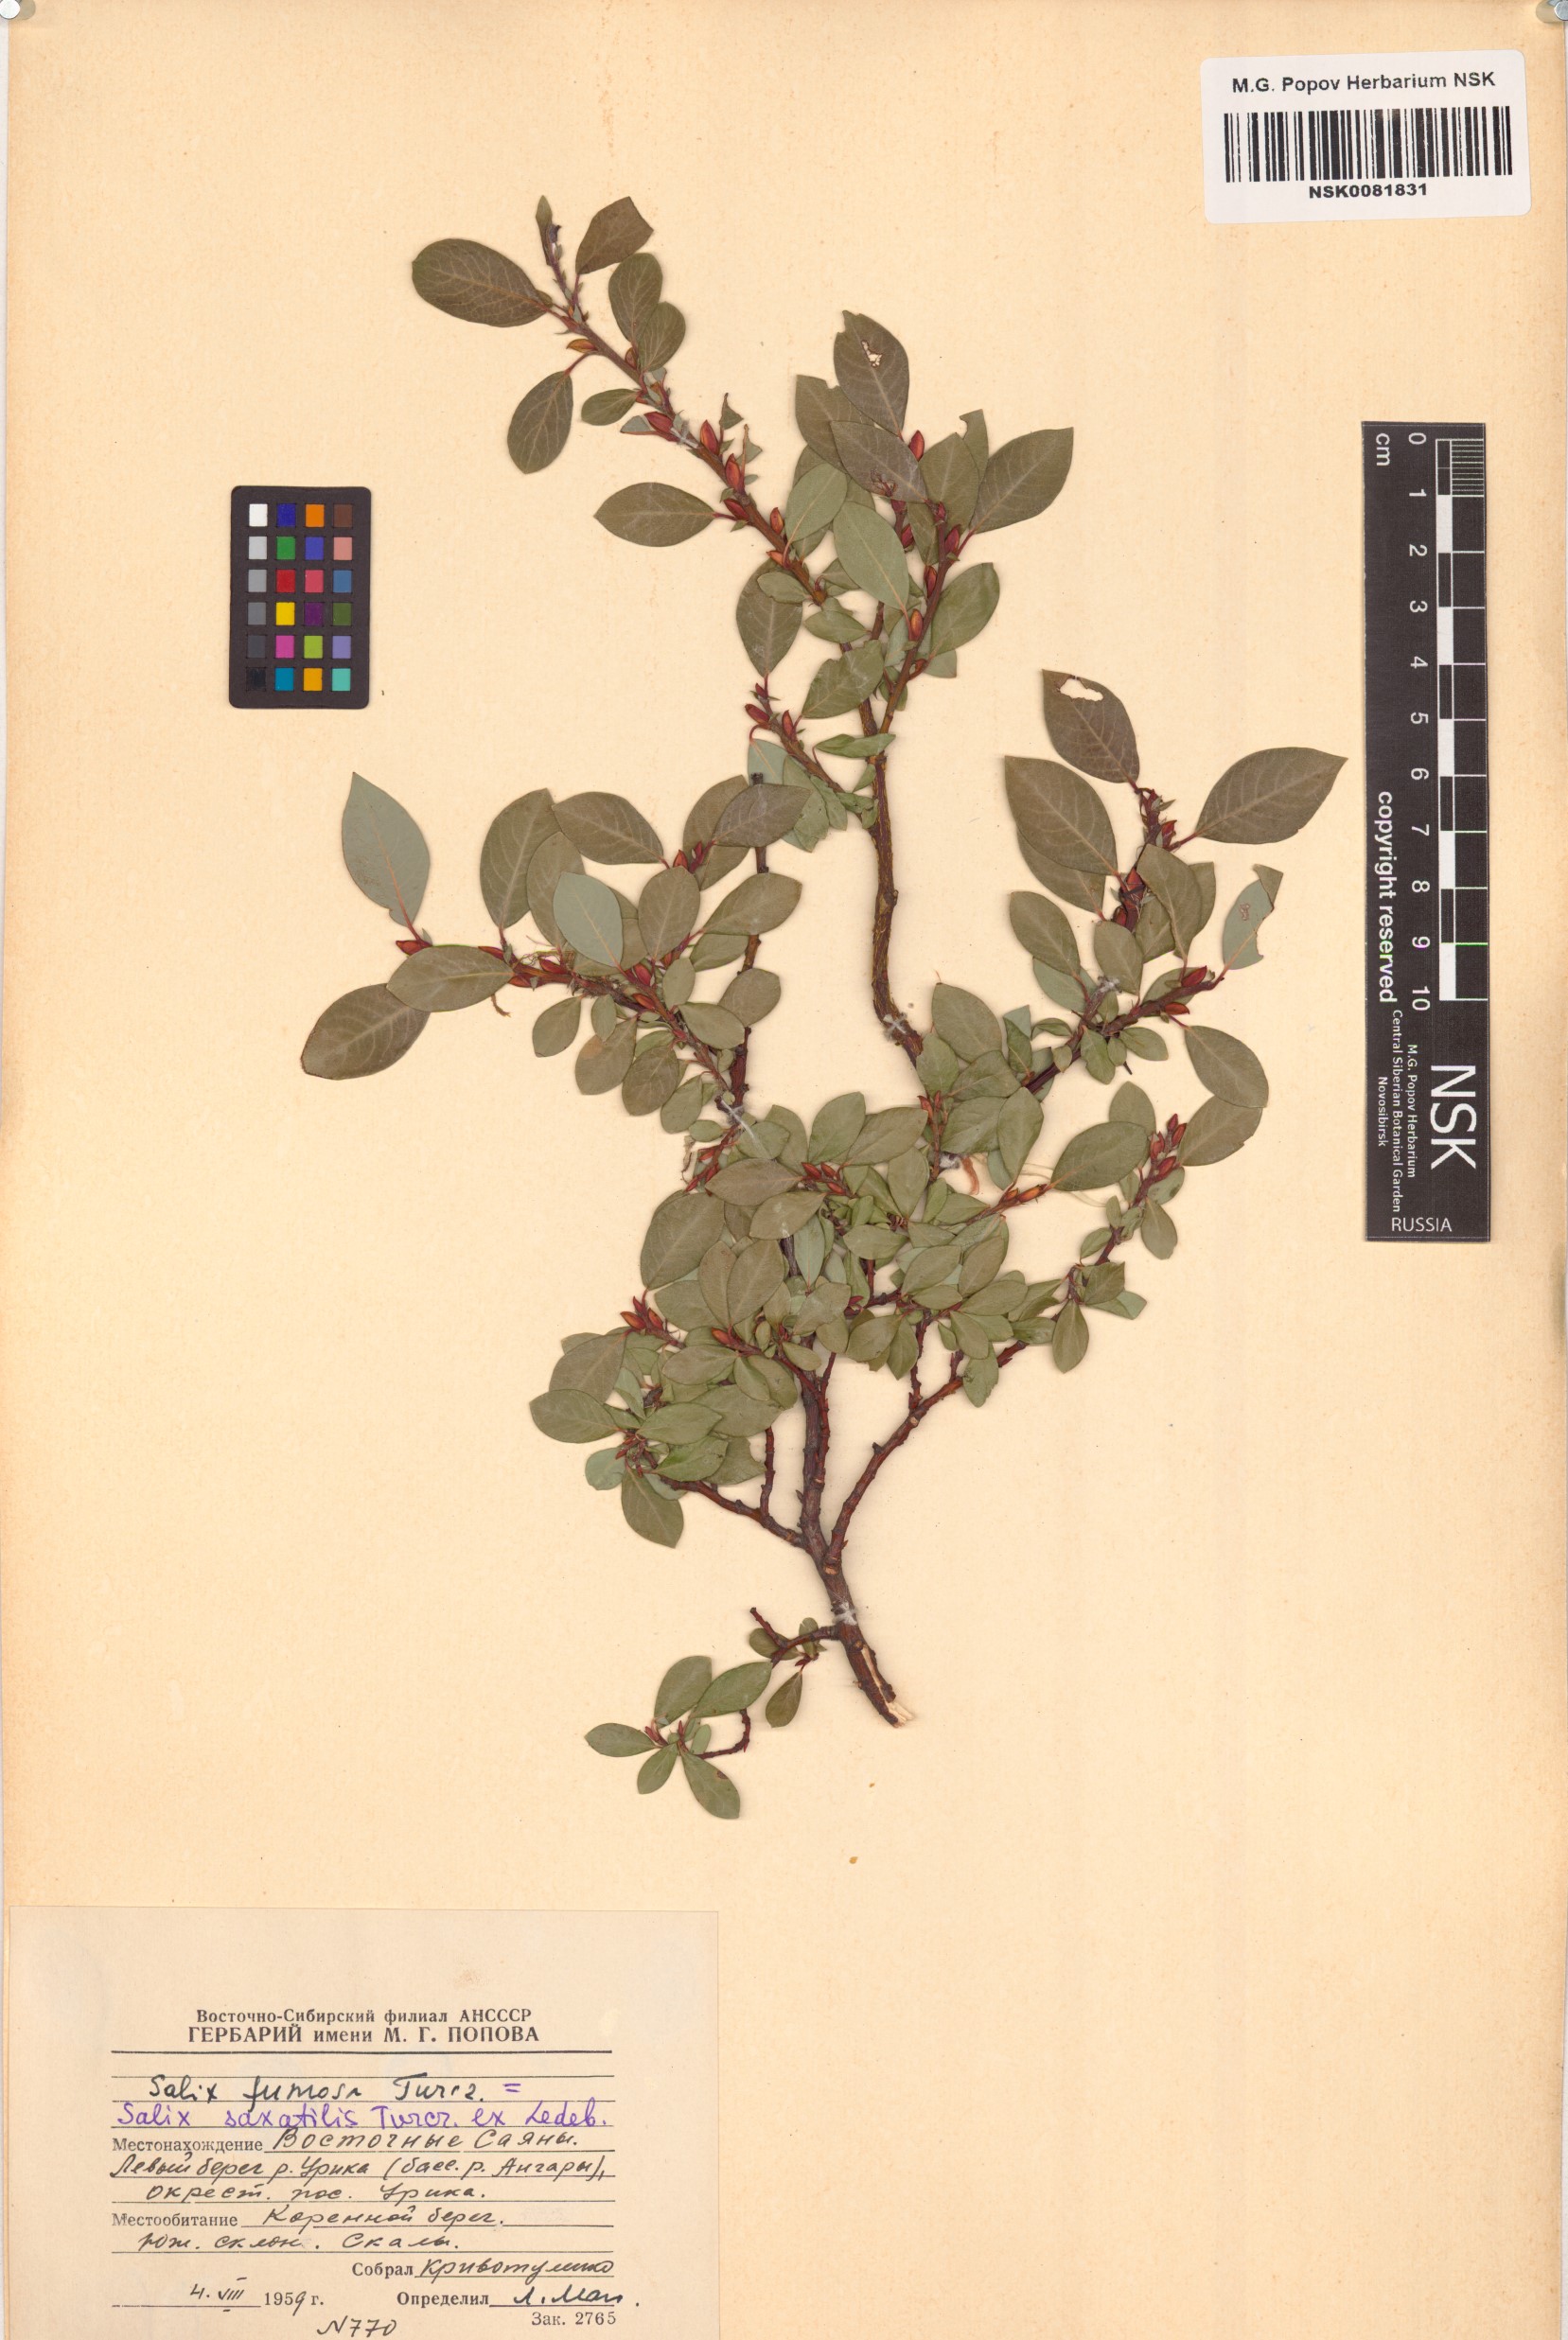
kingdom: Plantae
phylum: Tracheophyta
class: Magnoliopsida
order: Malpighiales
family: Salicaceae
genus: Salix
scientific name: Salix saxatilis
